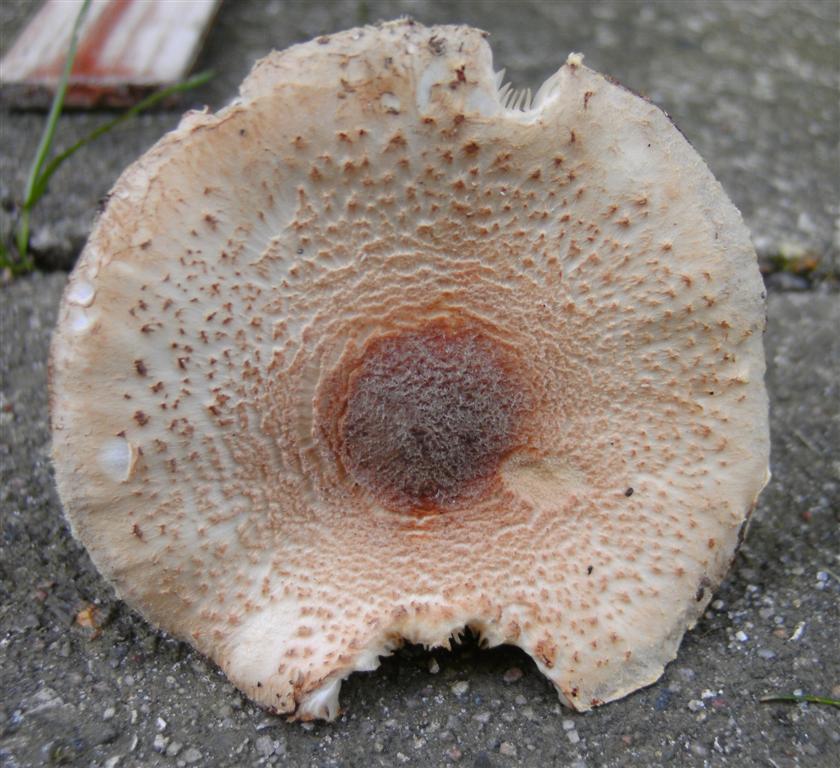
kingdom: Fungi
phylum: Basidiomycota
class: Agaricomycetes
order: Agaricales
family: Agaricaceae
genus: Lepiota
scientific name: Lepiota magnispora
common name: gulfnugget parasolhat
